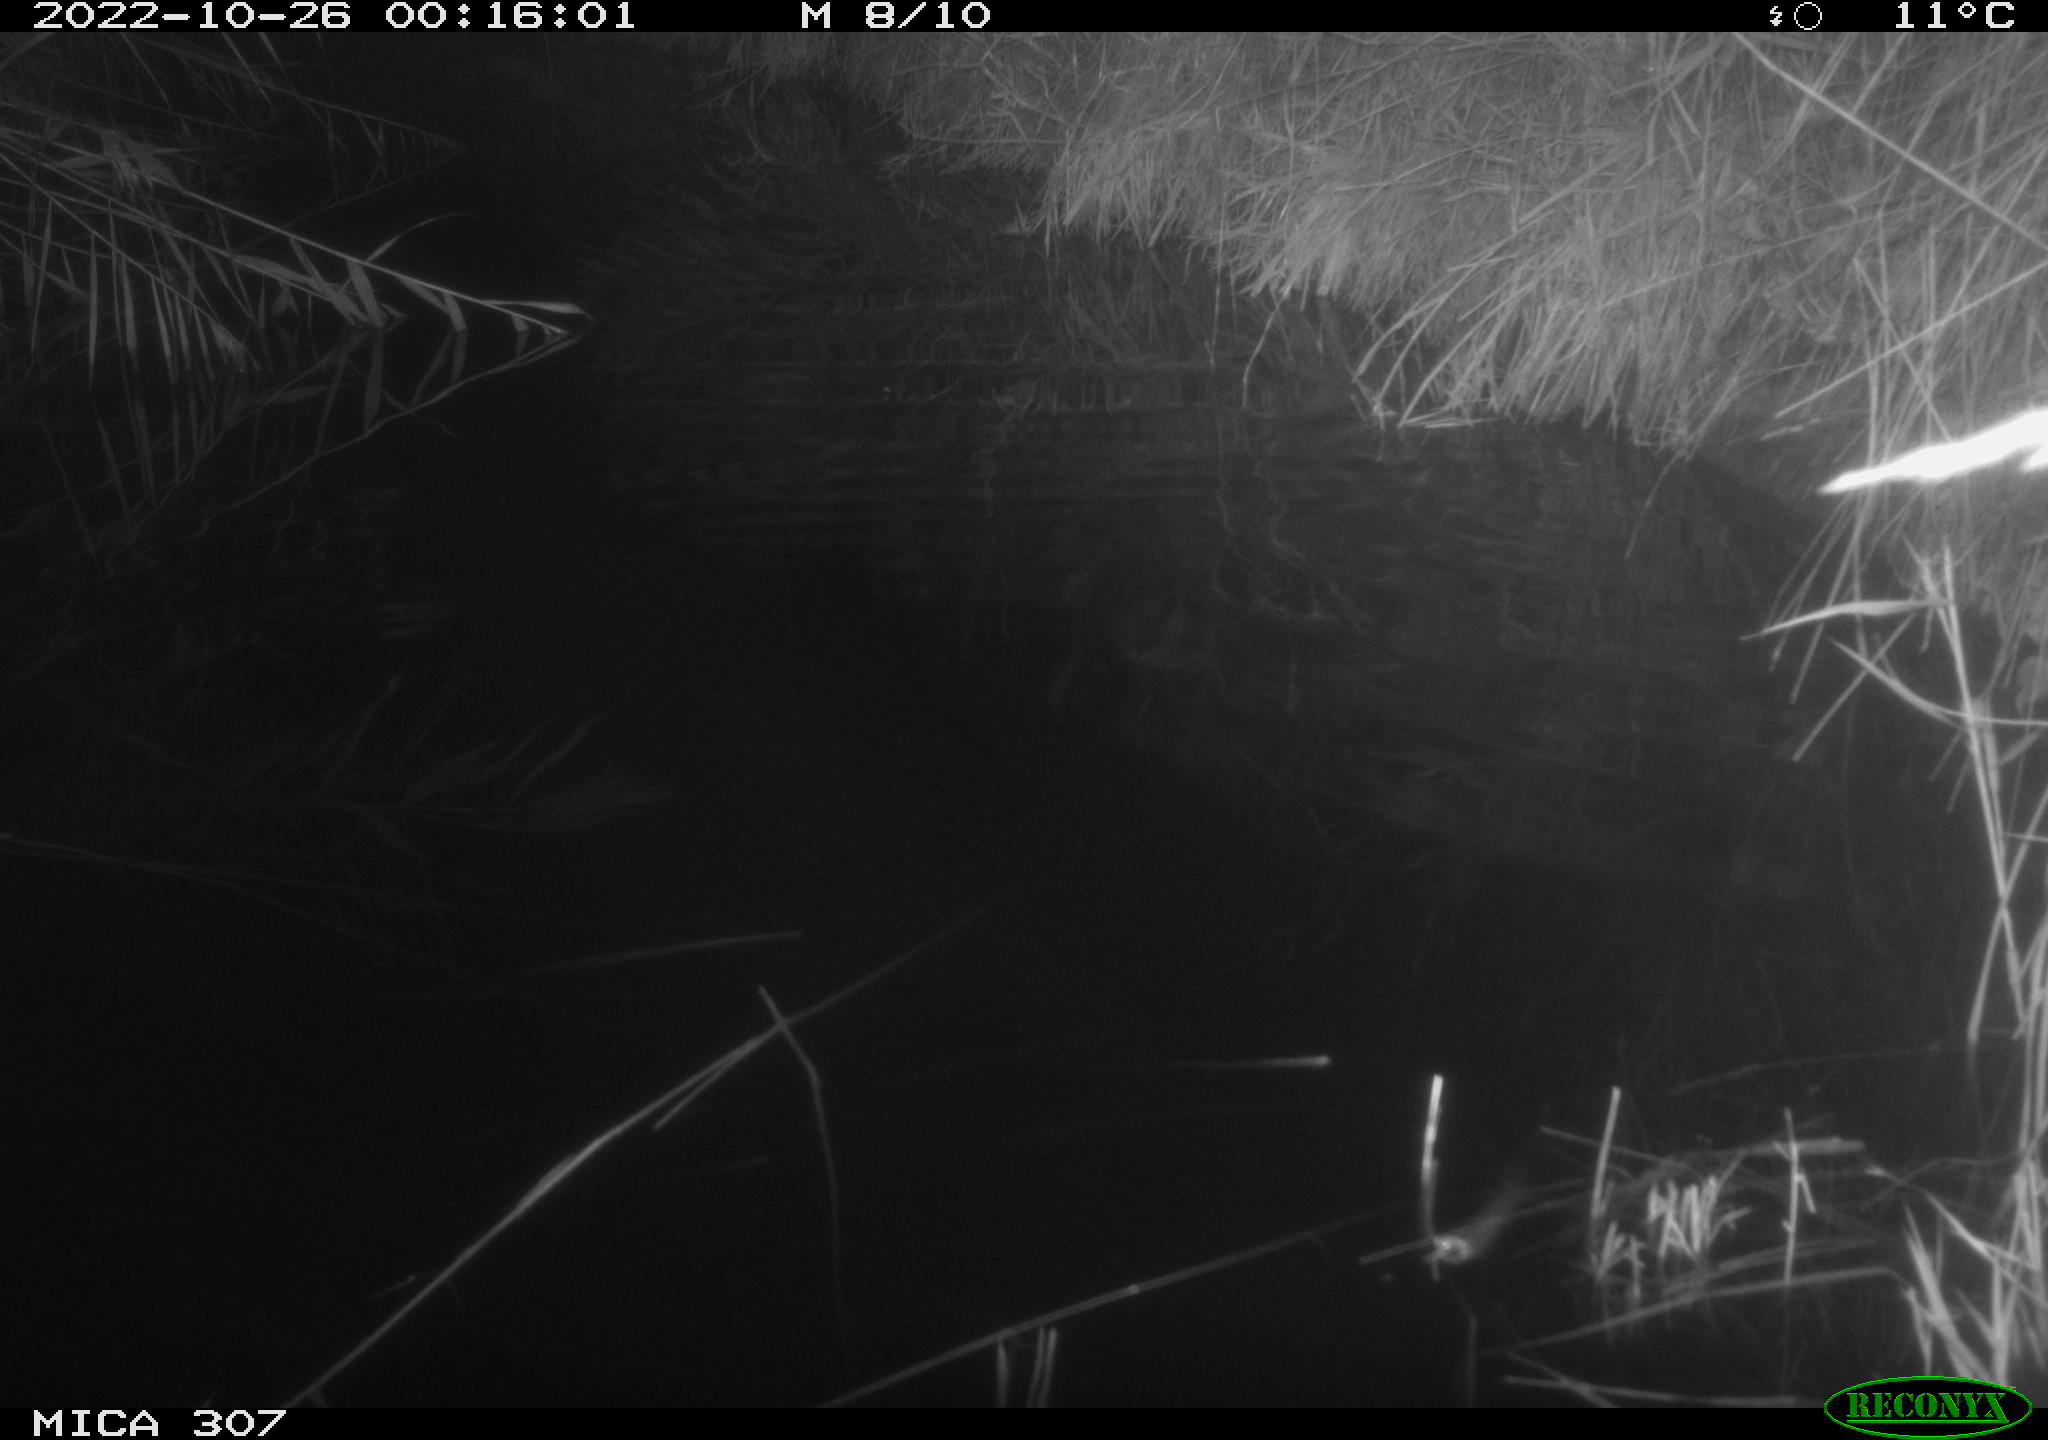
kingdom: Animalia
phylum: Chordata
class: Mammalia
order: Rodentia
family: Muridae
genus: Rattus
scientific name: Rattus norvegicus
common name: Brown rat
